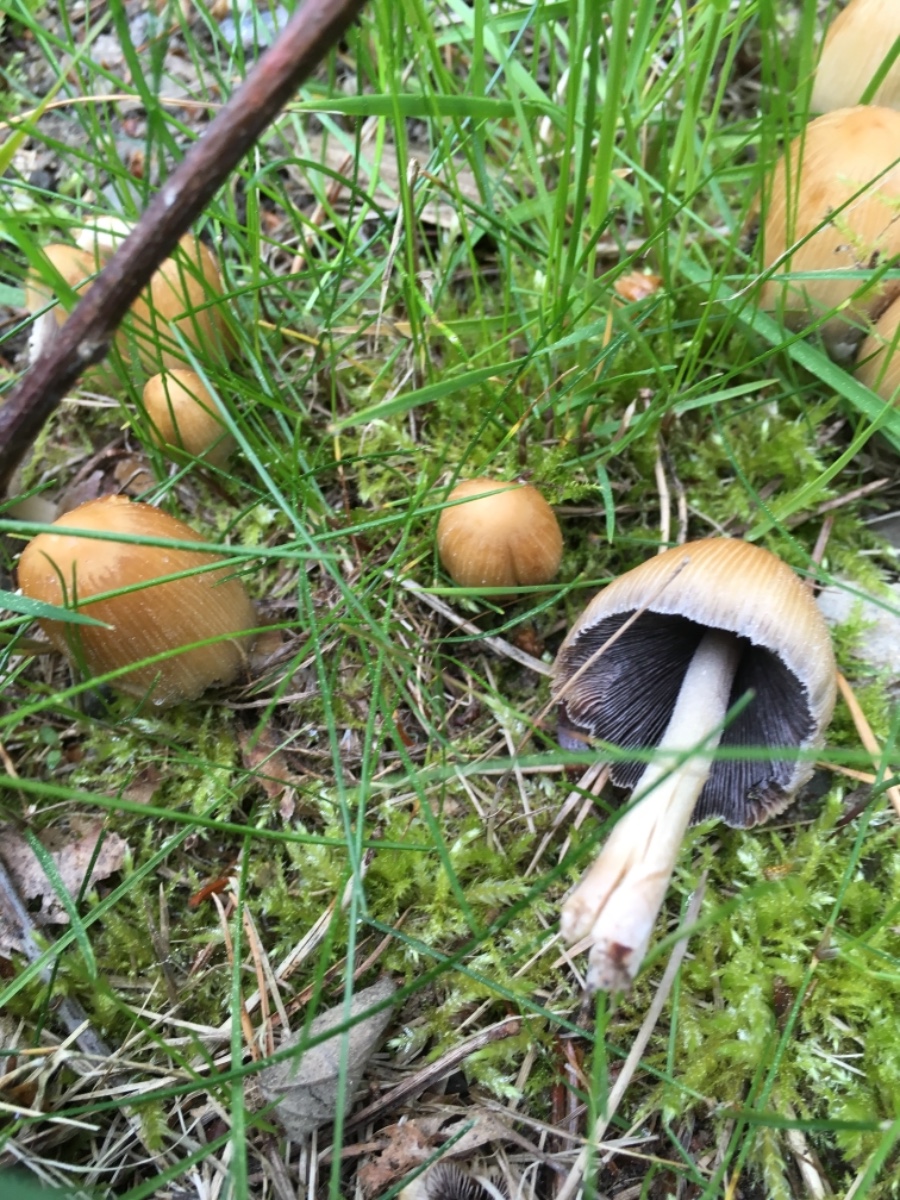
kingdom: Fungi
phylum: Basidiomycota
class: Agaricomycetes
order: Agaricales
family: Psathyrellaceae
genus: Coprinellus
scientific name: Coprinellus micaceus
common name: glimmer-blækhat
